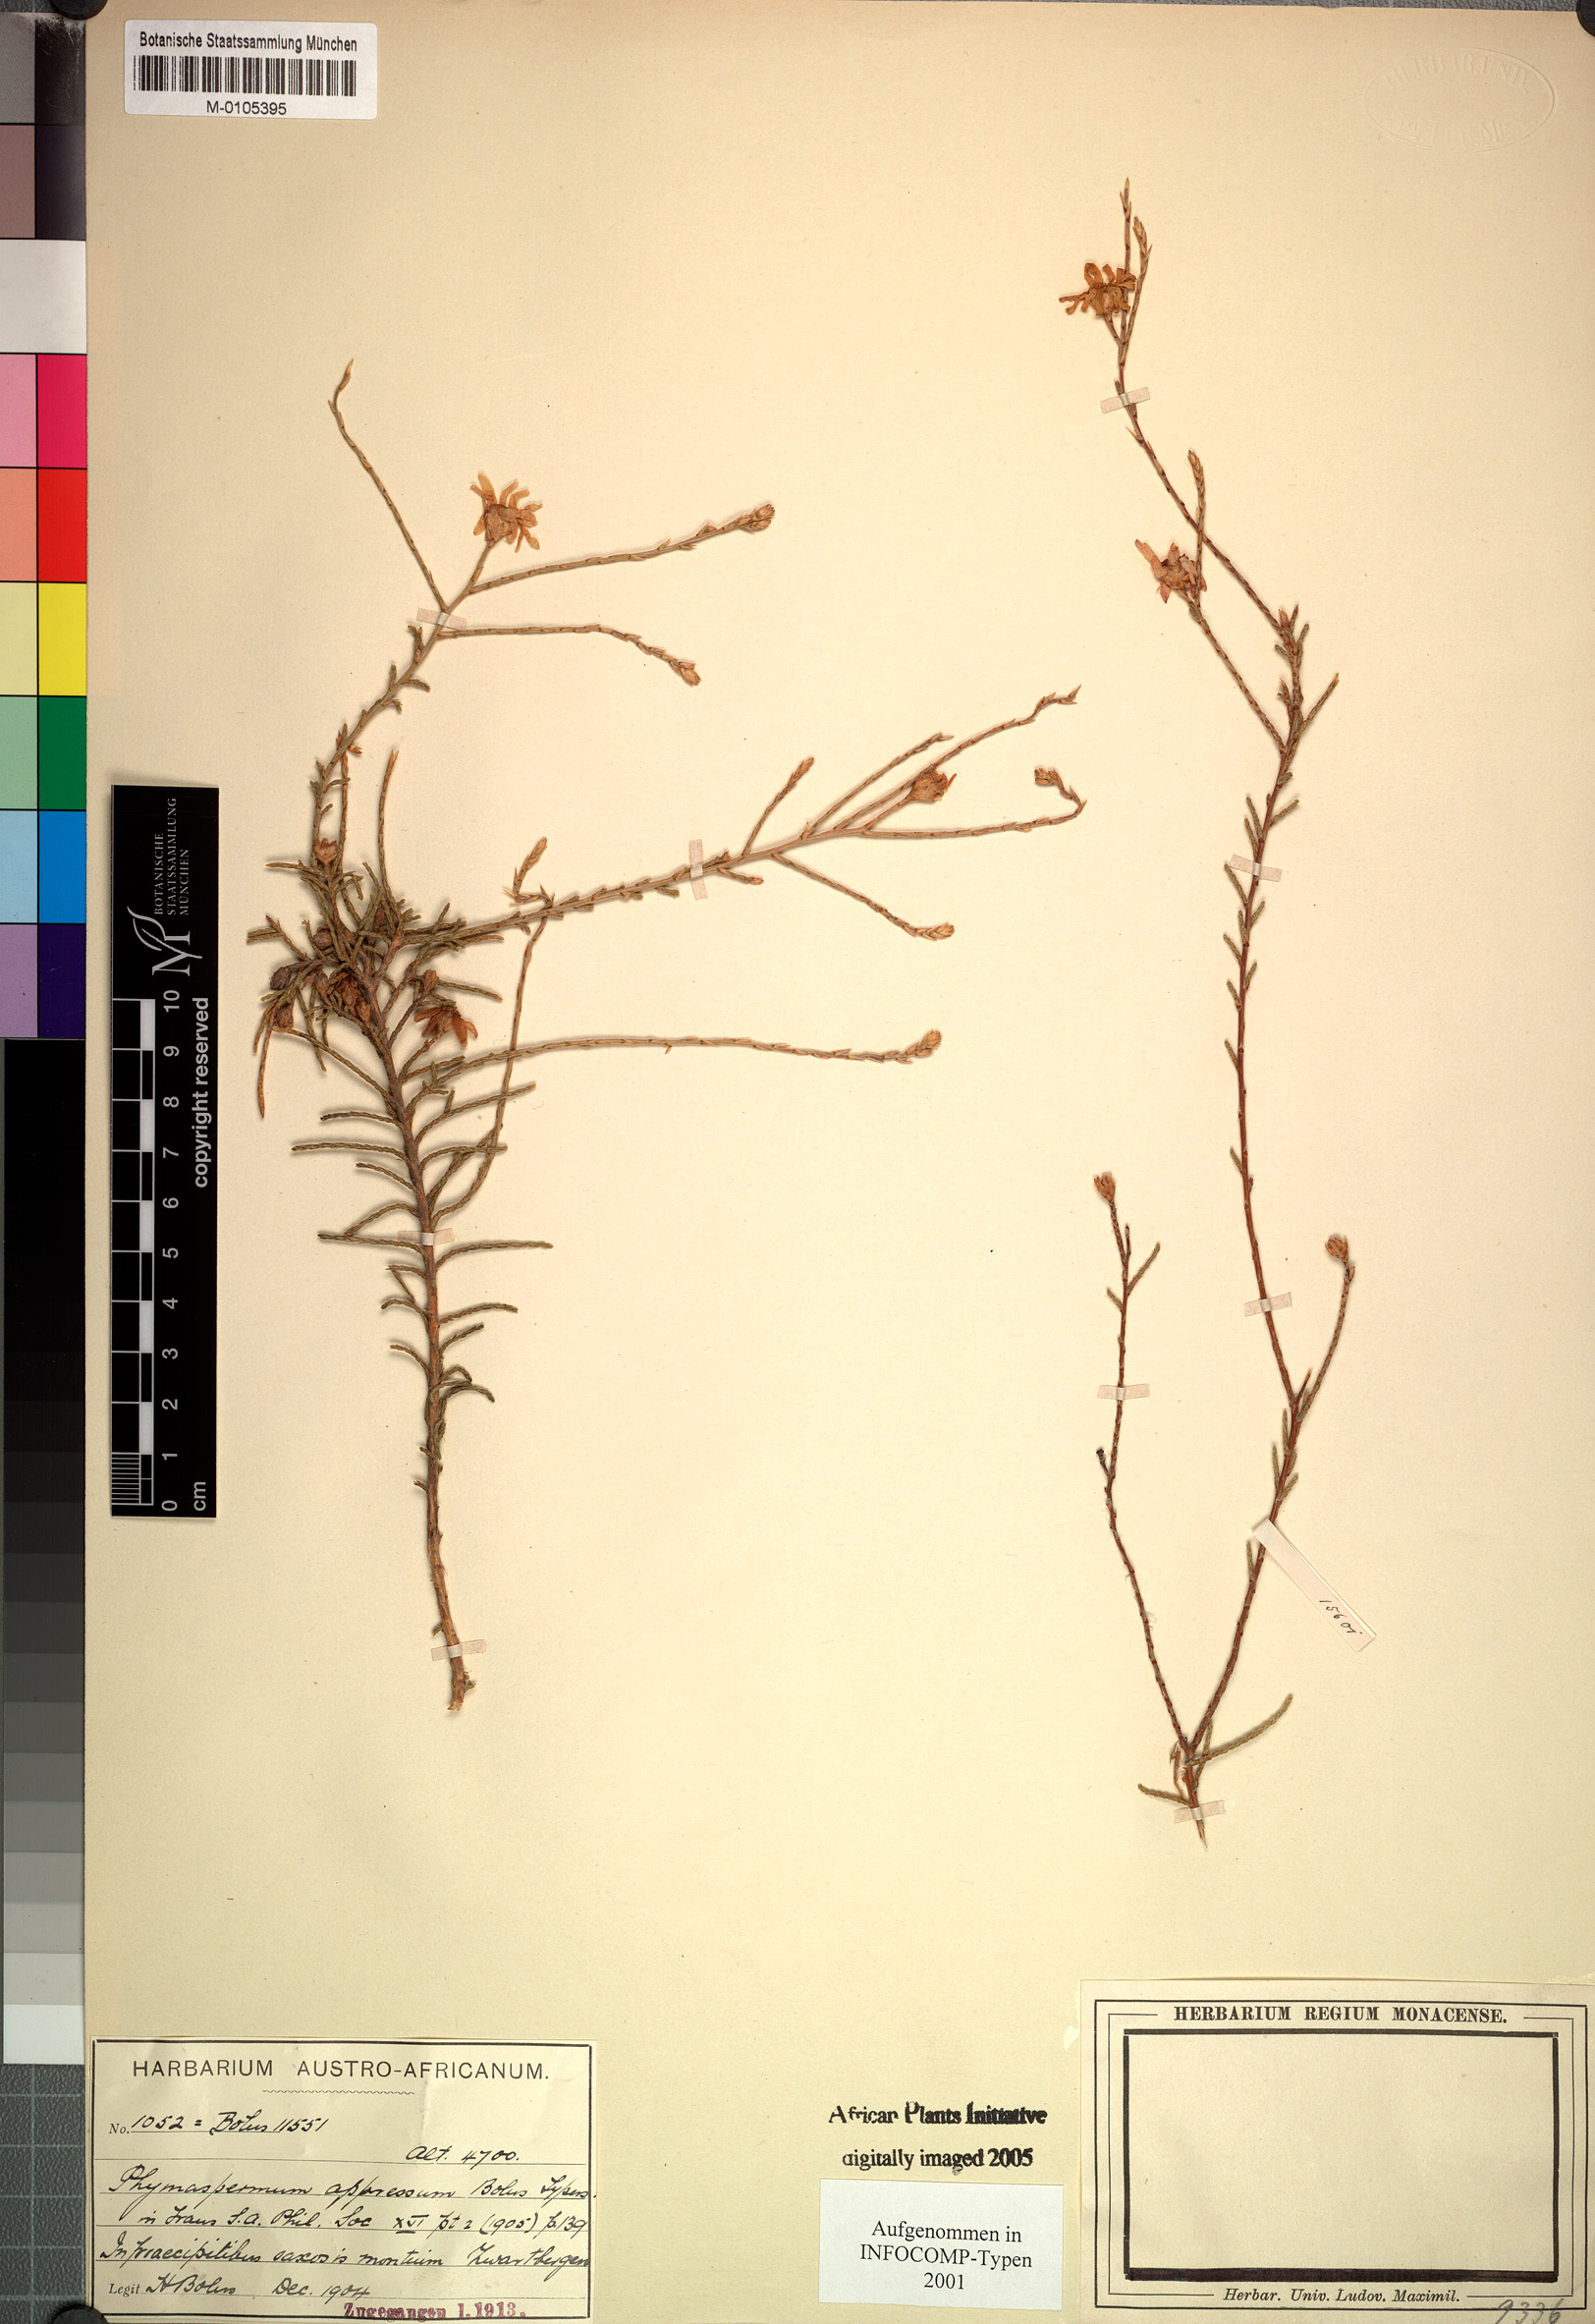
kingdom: Plantae
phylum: Tracheophyta
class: Magnoliopsida
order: Asterales
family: Asteraceae
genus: Phymaspermum
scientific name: Phymaspermum appressum
